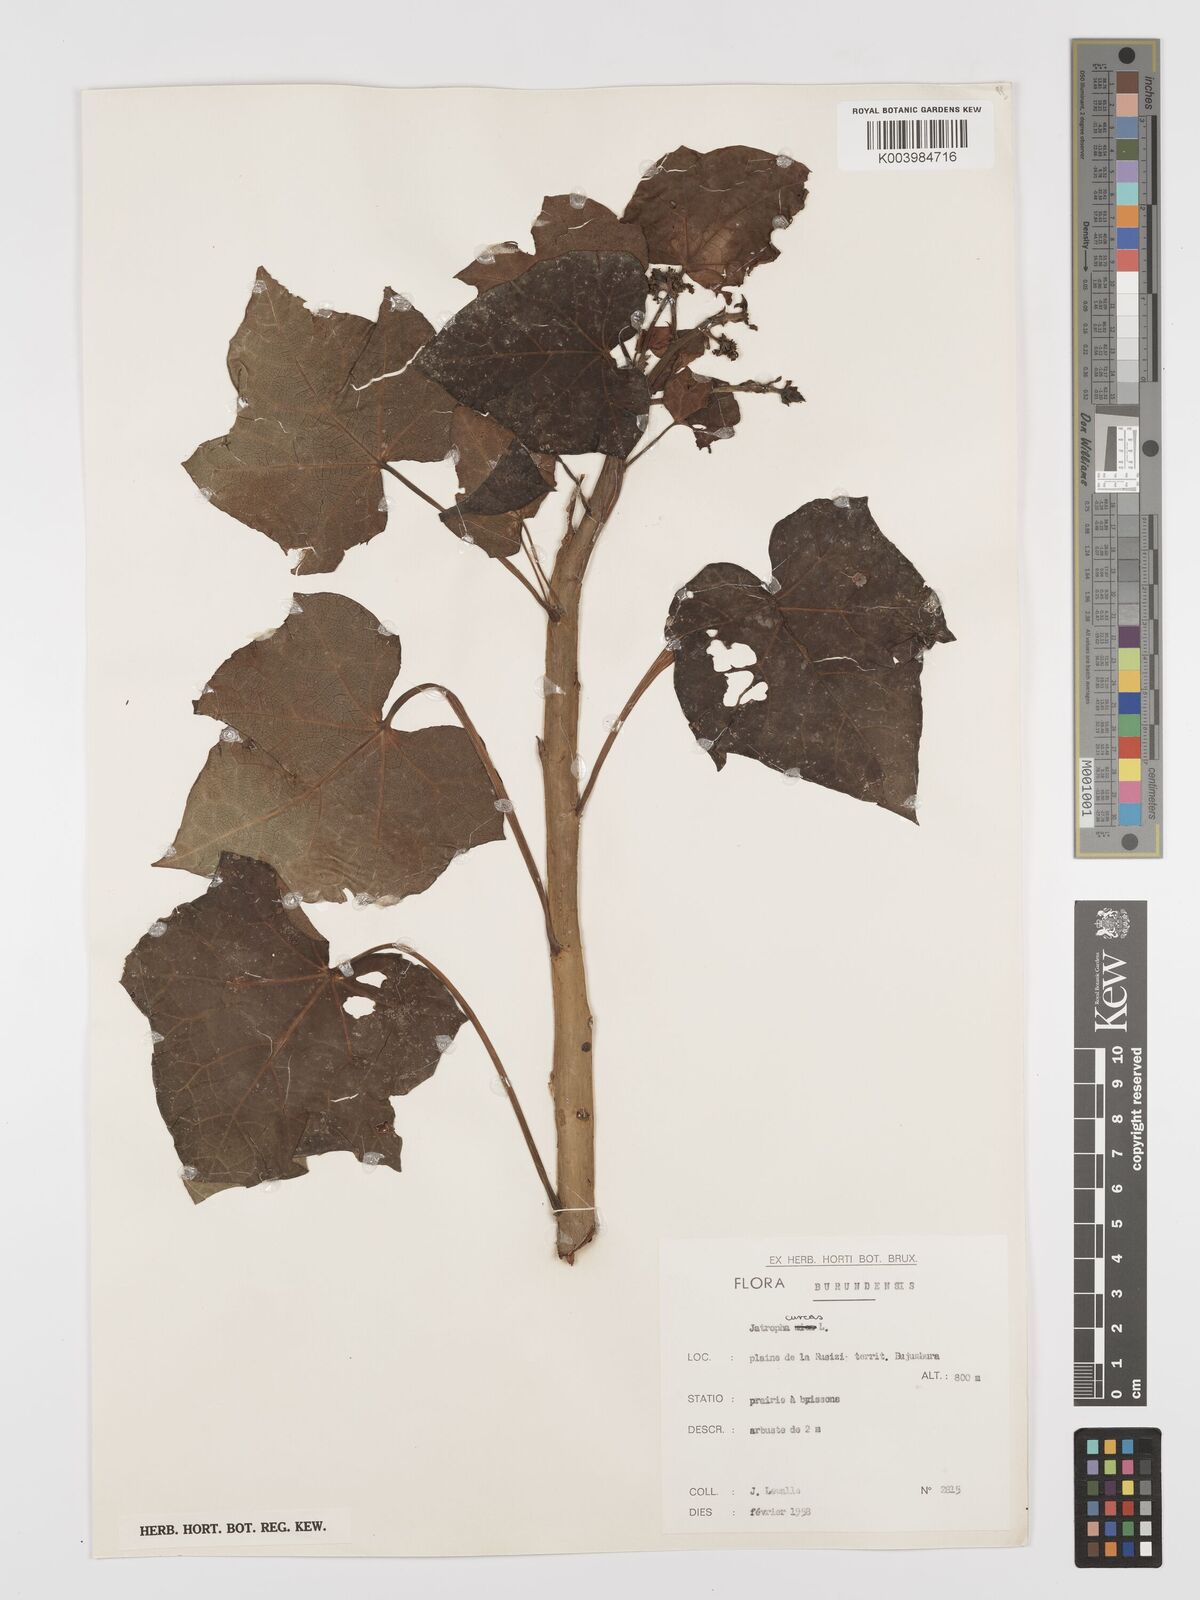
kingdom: Plantae
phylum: Tracheophyta
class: Magnoliopsida
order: Malpighiales
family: Euphorbiaceae
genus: Jatropha
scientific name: Jatropha curcas
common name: Barbados nut
